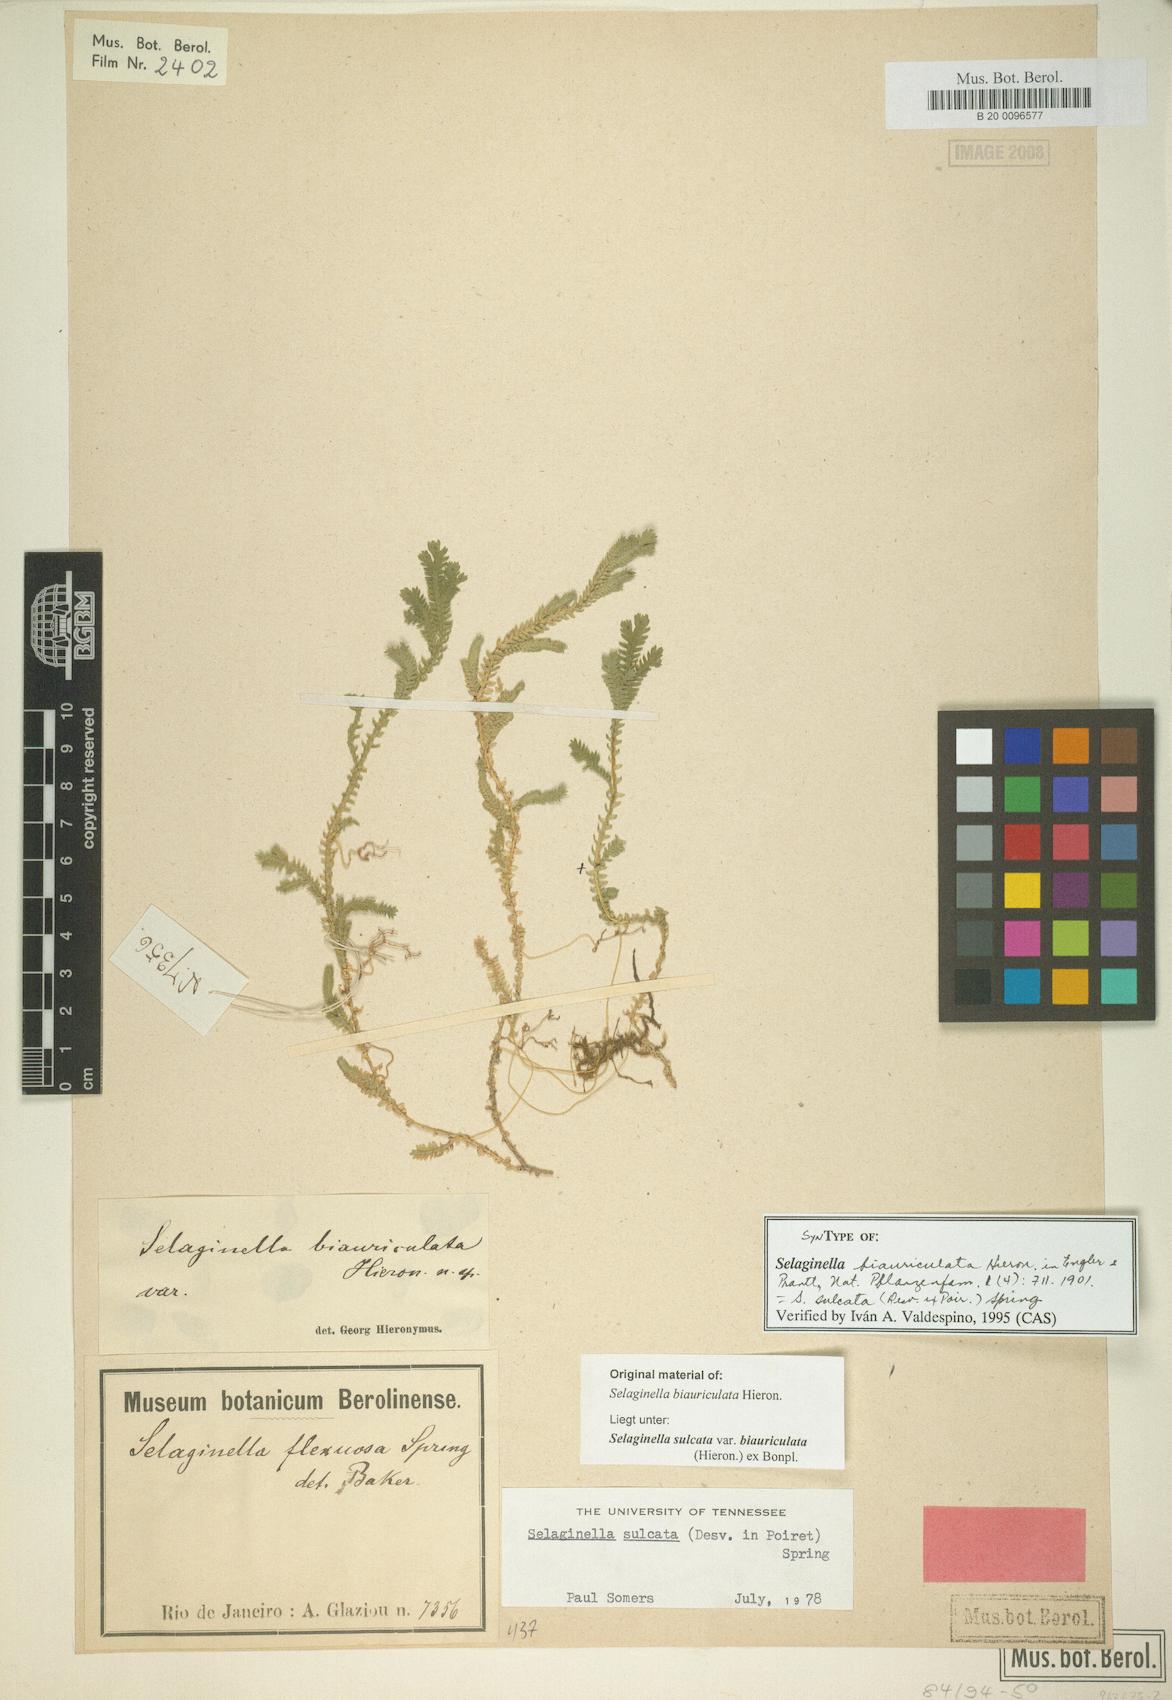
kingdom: Plantae
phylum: Tracheophyta
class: Lycopodiopsida
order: Selaginellales
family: Selaginellaceae
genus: Selaginella
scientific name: Selaginella sulcata
